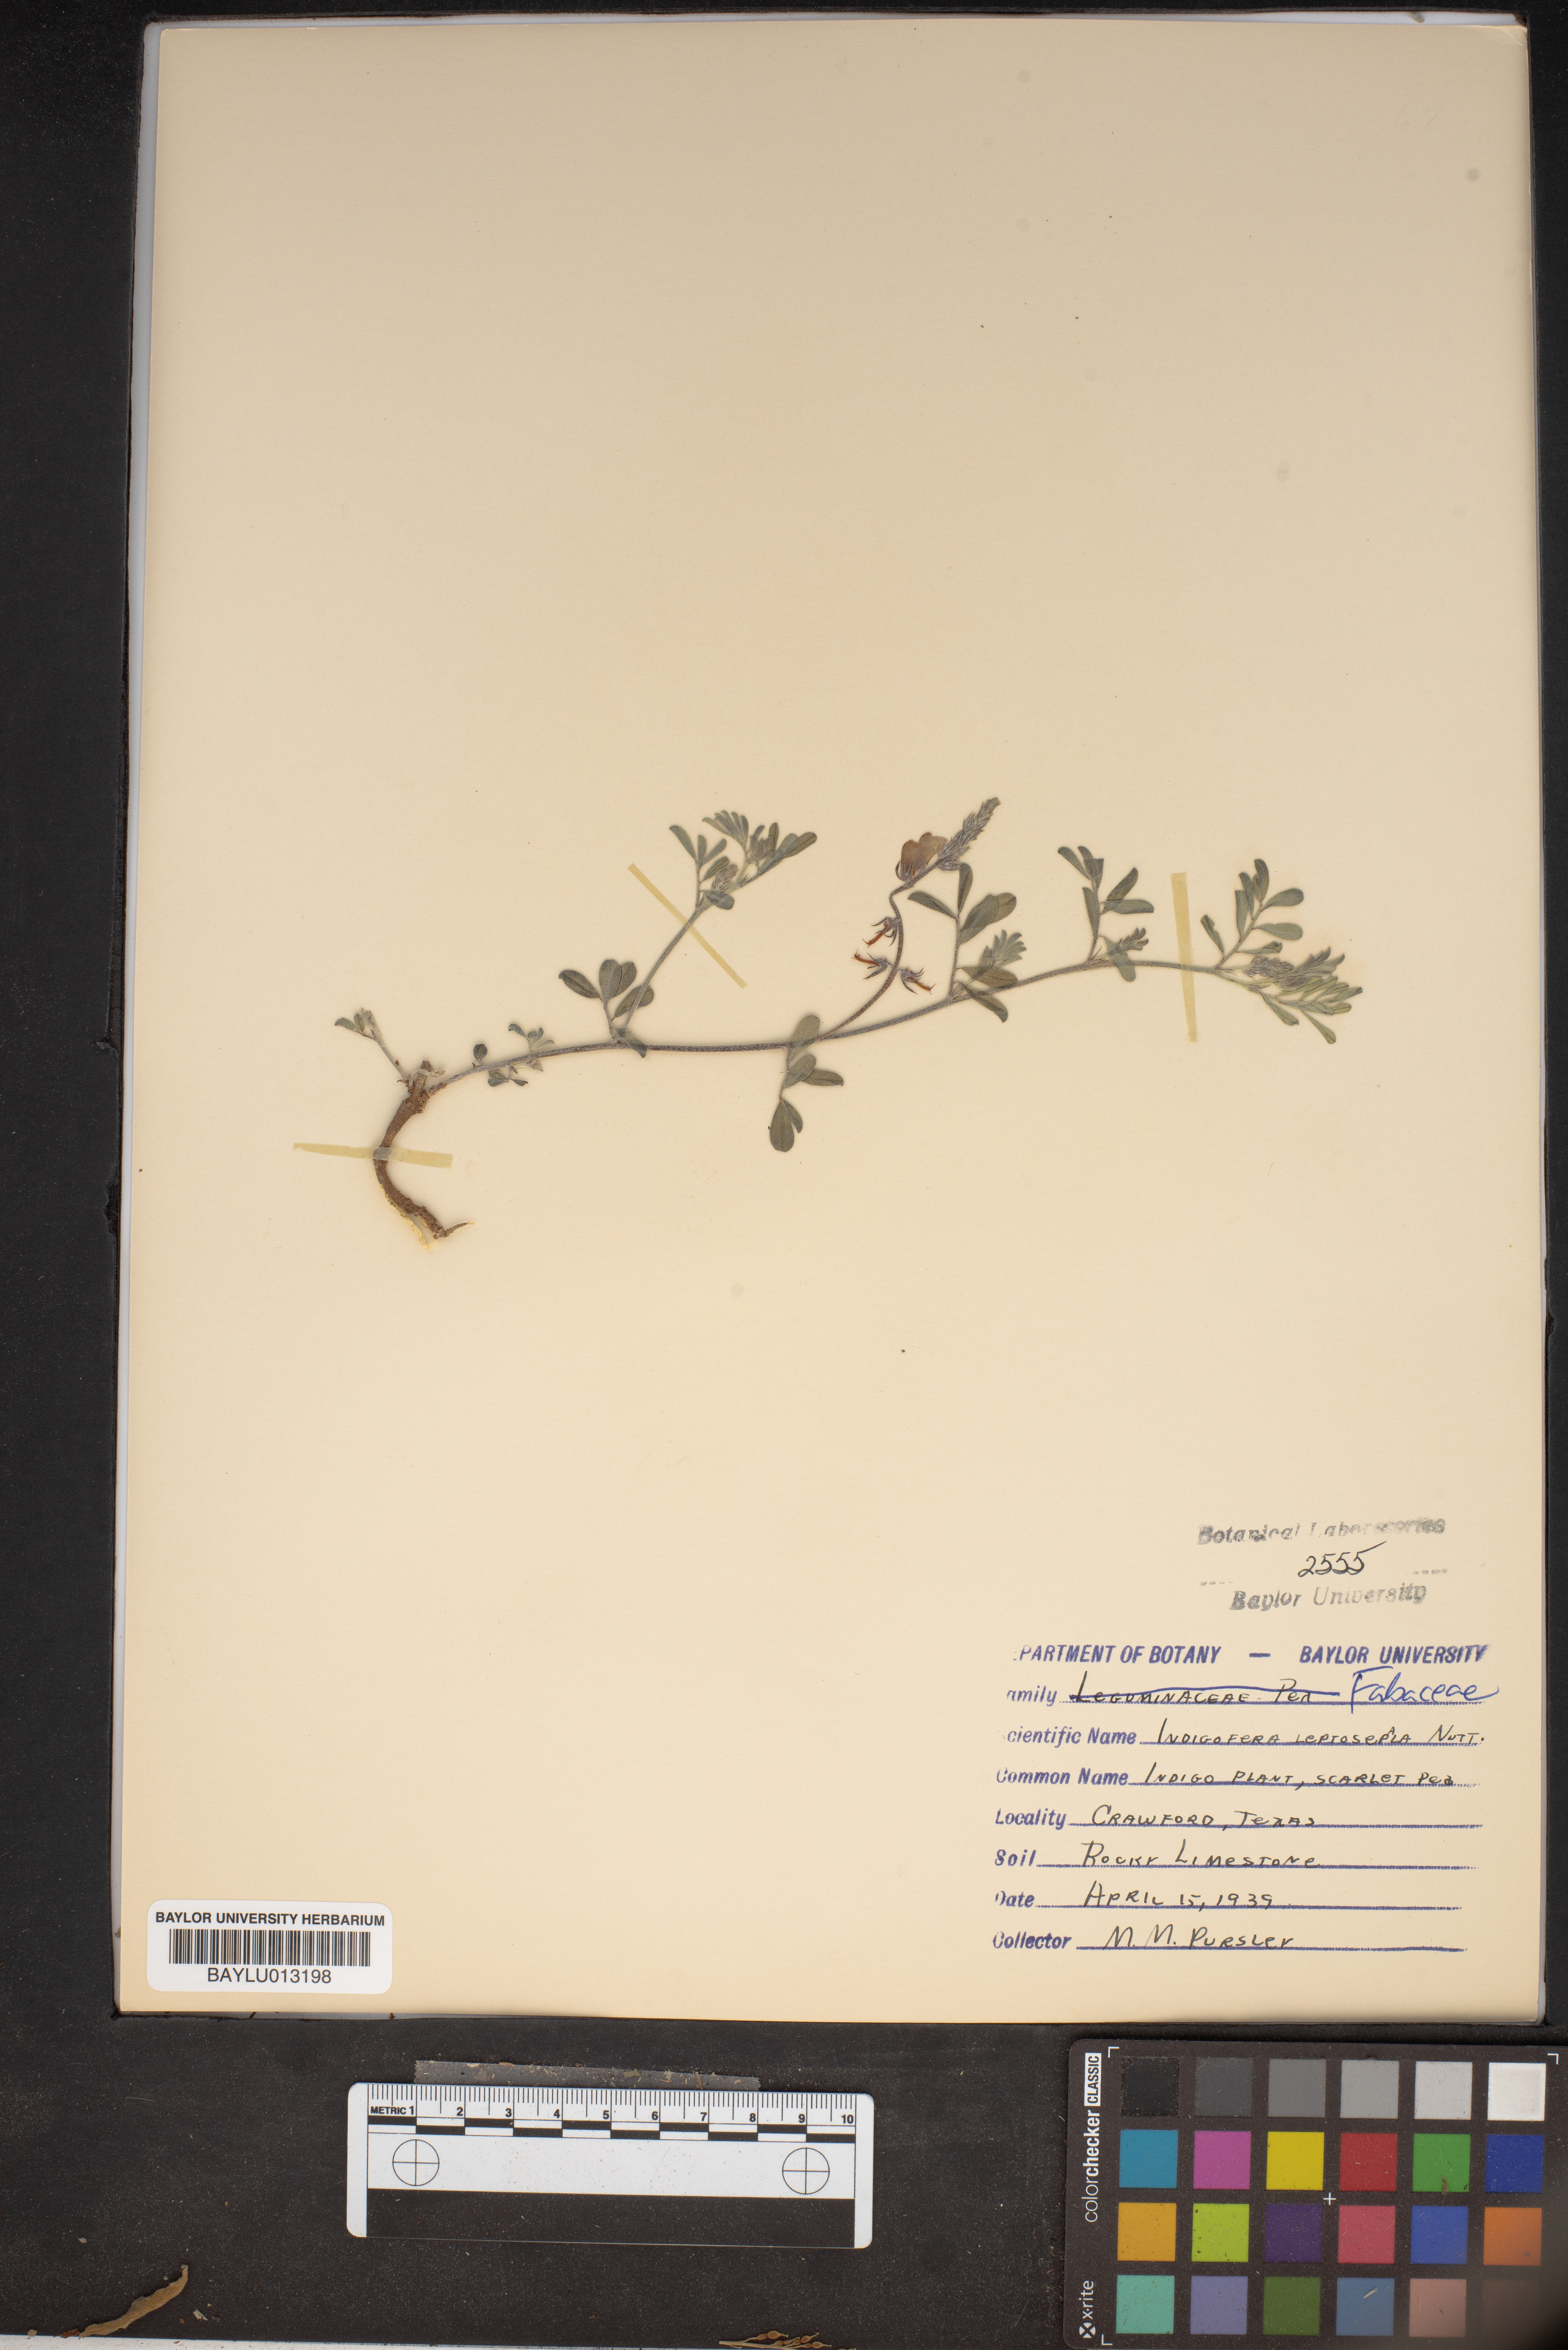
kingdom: Plantae
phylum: Tracheophyta
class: Magnoliopsida
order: Fabales
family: Fabaceae
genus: Indigofera
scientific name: Indigofera argutidens
